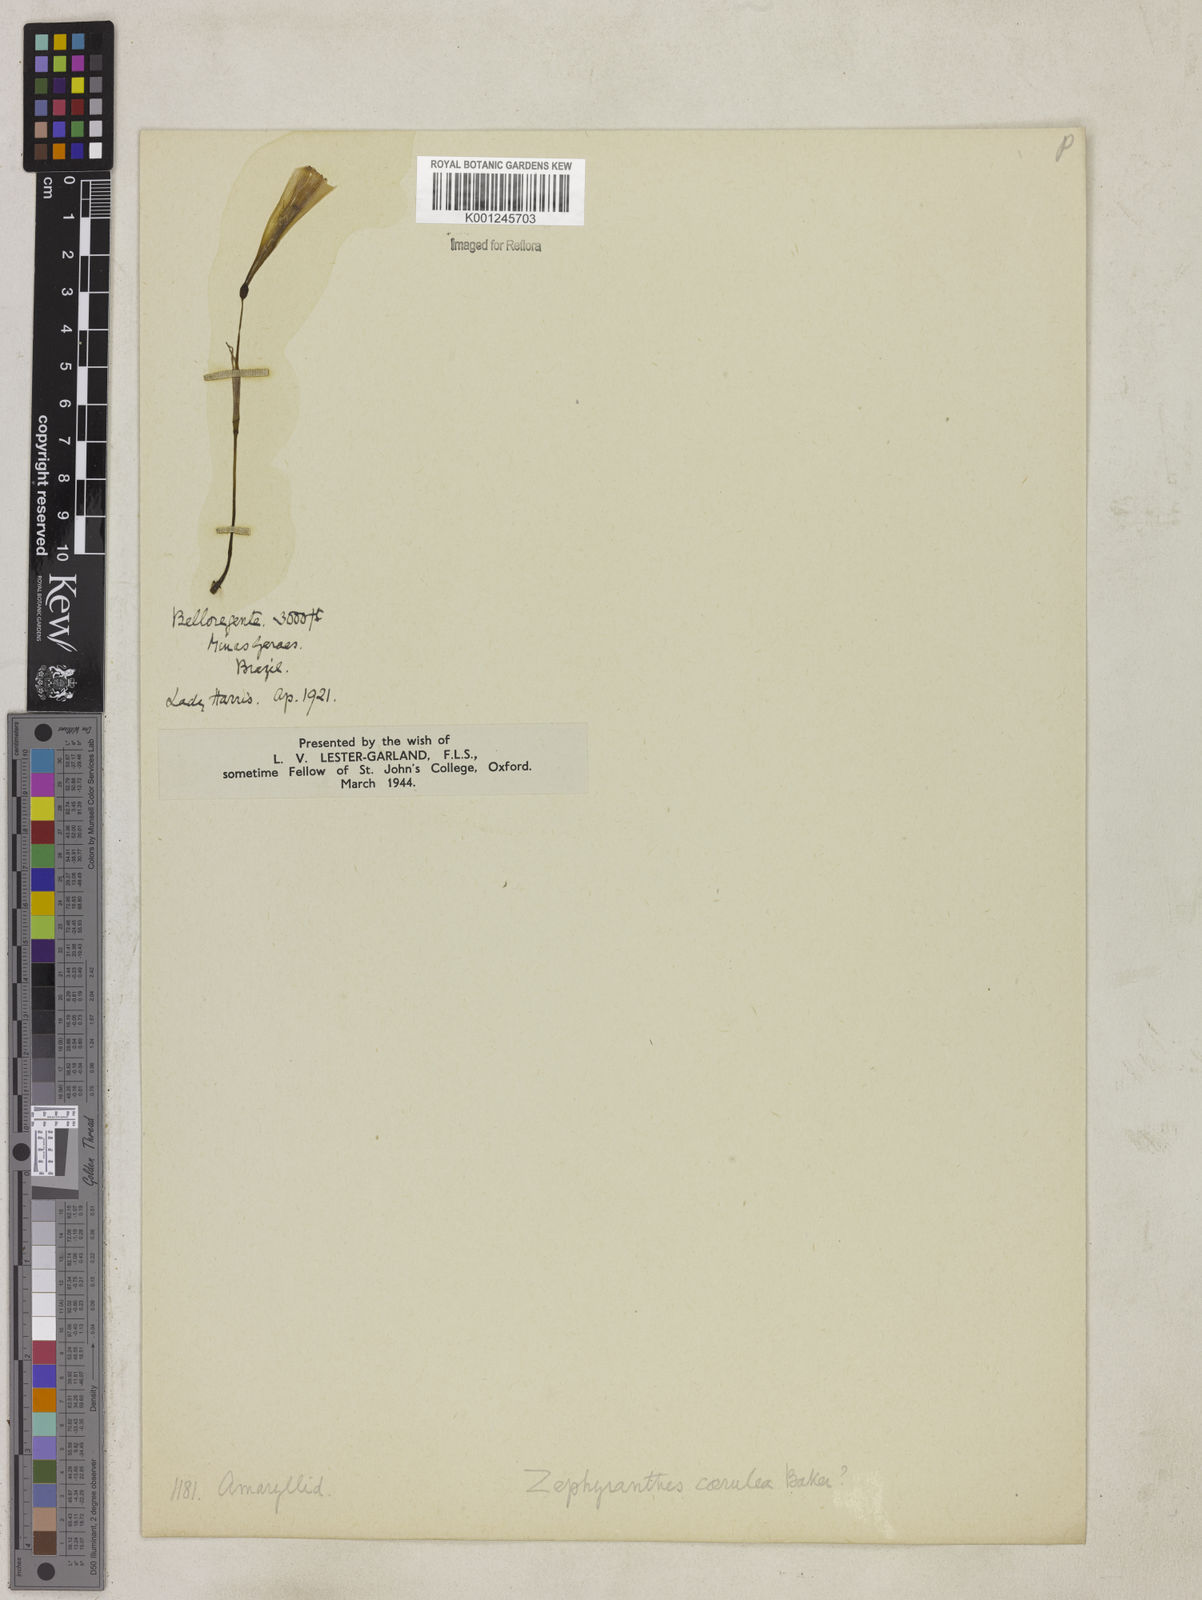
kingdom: Plantae
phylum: Tracheophyta
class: Liliopsida
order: Asparagales
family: Amaryllidaceae
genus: Zephyranthes
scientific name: Zephyranthes caerulea
